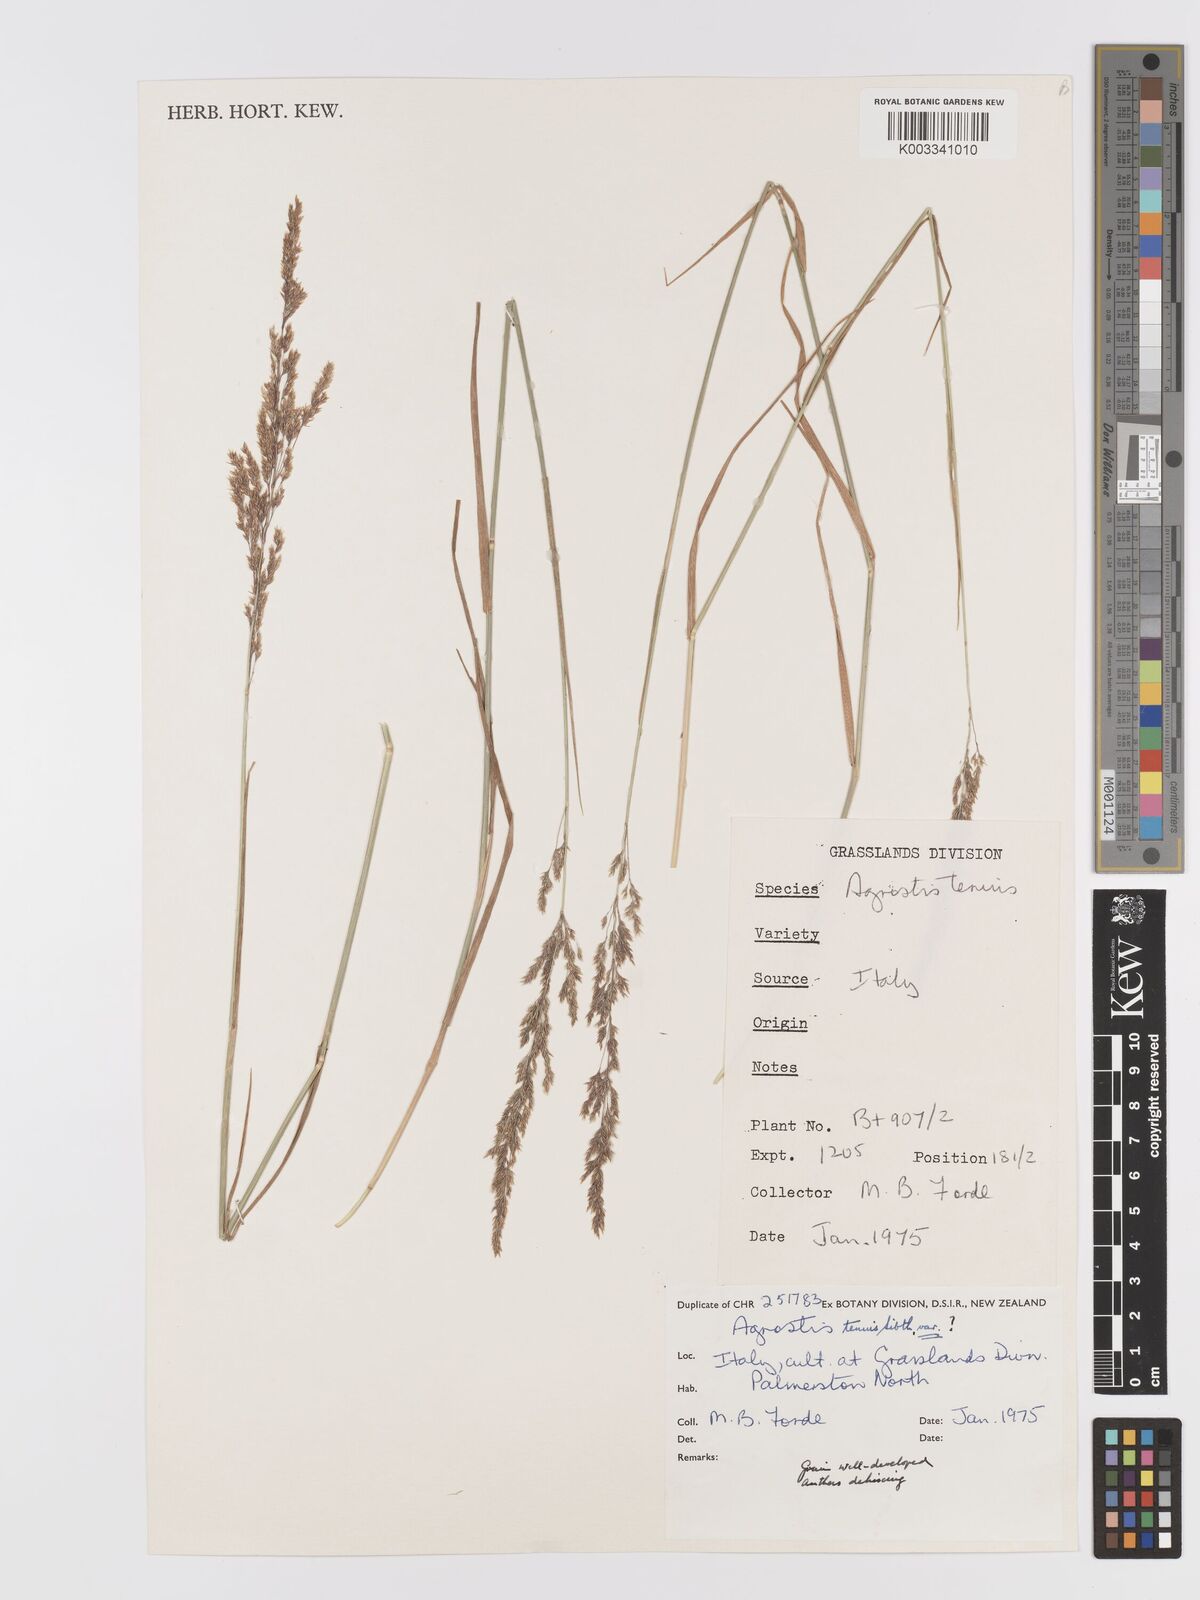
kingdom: Plantae
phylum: Tracheophyta
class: Liliopsida
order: Poales
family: Poaceae
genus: Agrostis
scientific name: Agrostis capillaris
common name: Colonial bentgrass
